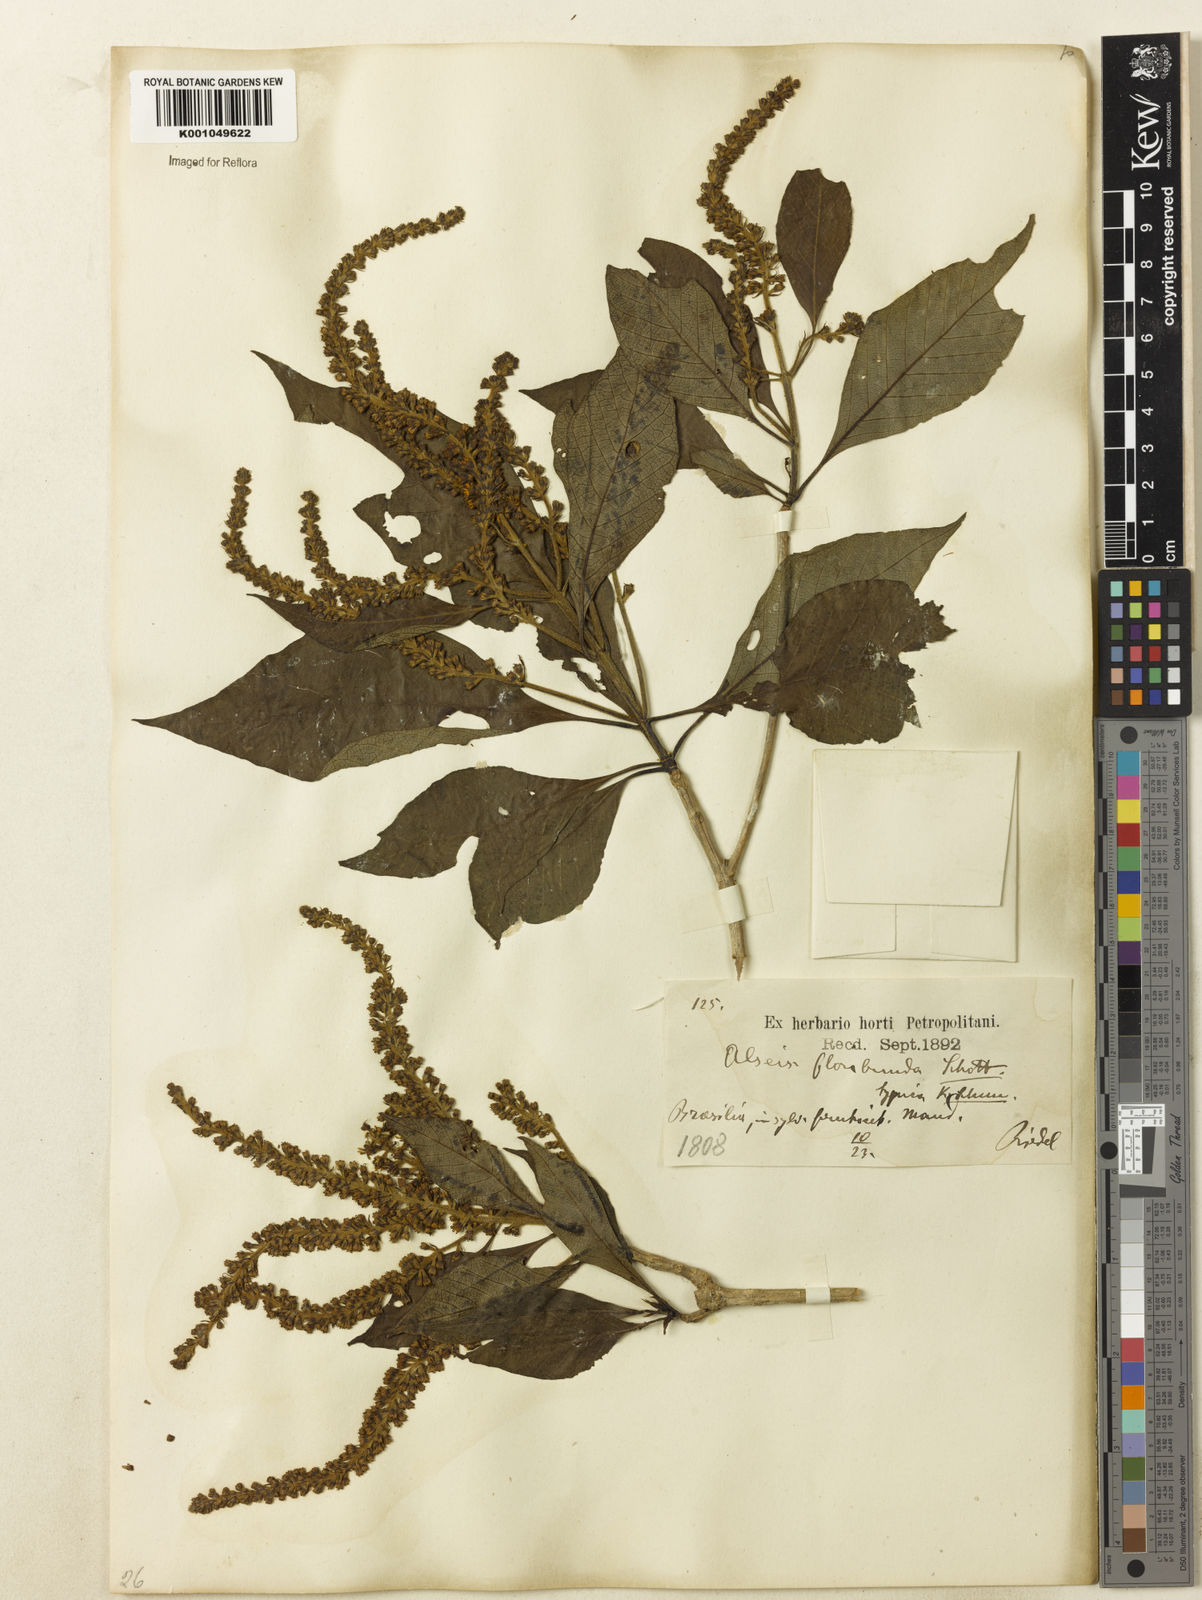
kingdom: Plantae
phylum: Tracheophyta
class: Magnoliopsida
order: Gentianales
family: Rubiaceae
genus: Alseis
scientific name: Alseis floribunda
